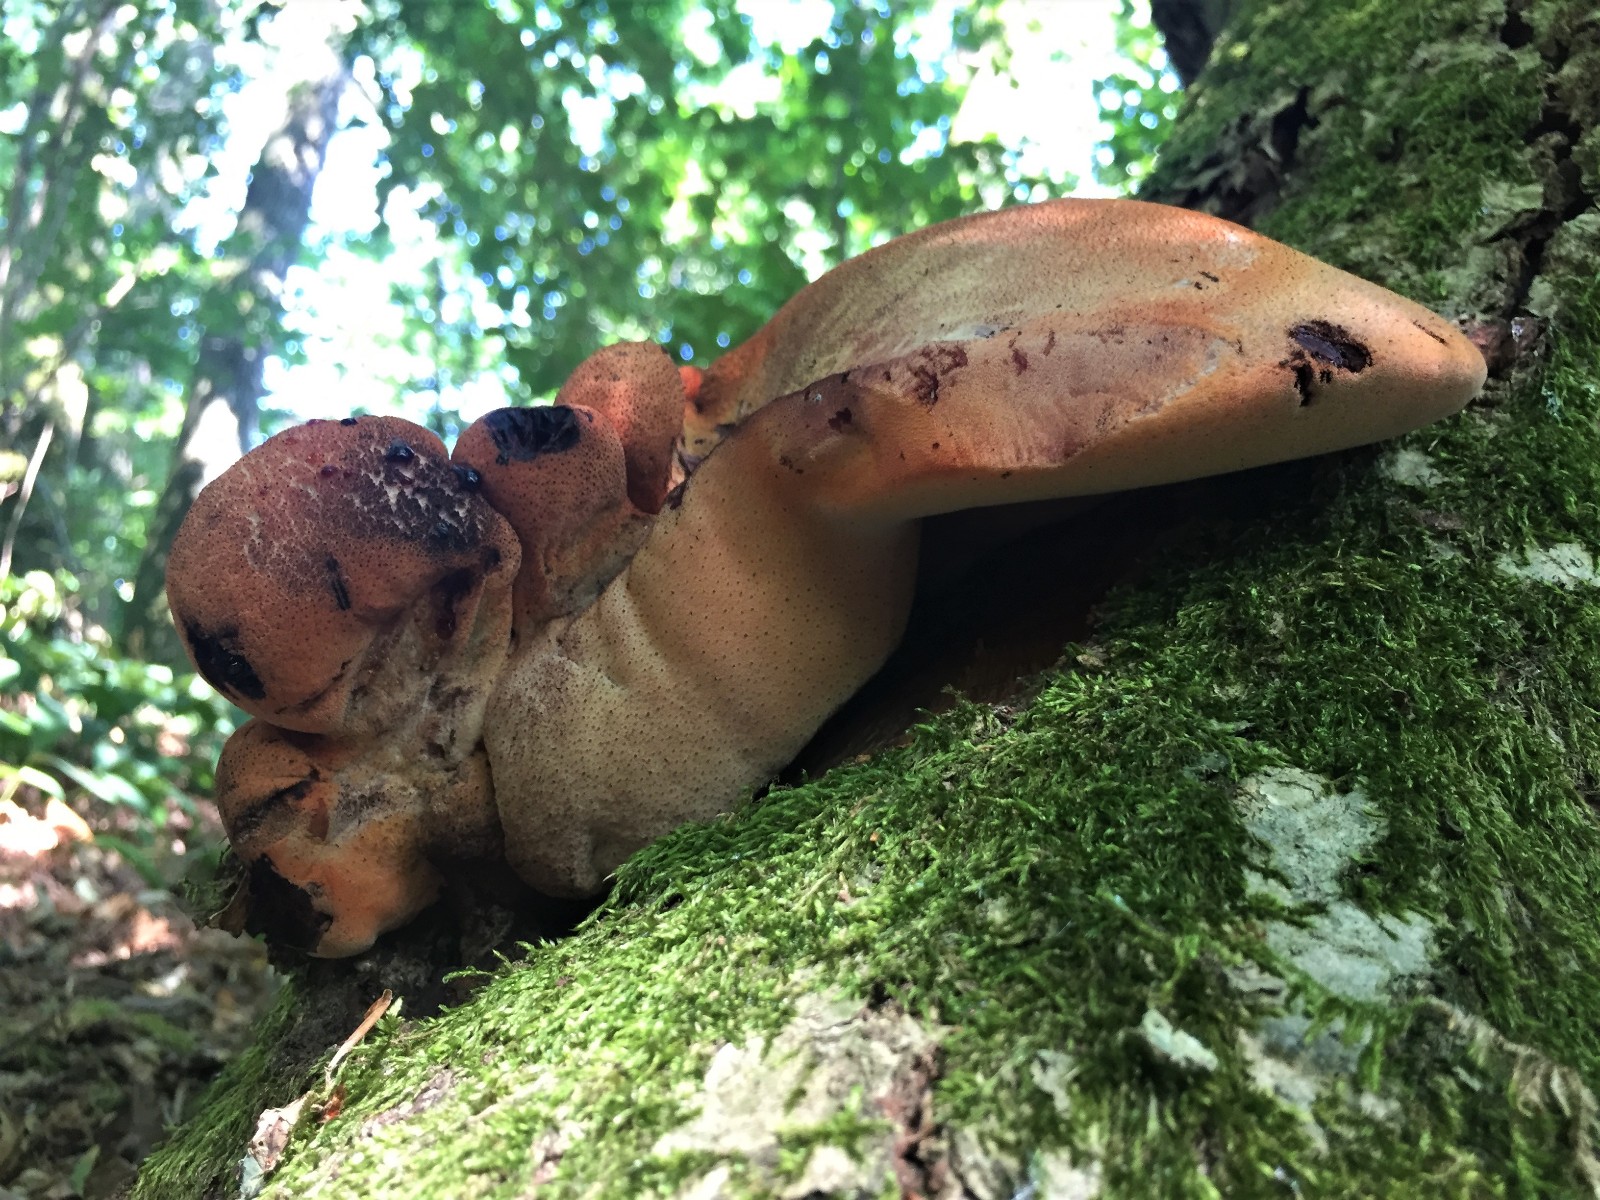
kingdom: Fungi
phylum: Basidiomycota
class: Agaricomycetes
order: Agaricales
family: Fistulinaceae
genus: Fistulina
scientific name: Fistulina hepatica
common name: oksetunge
